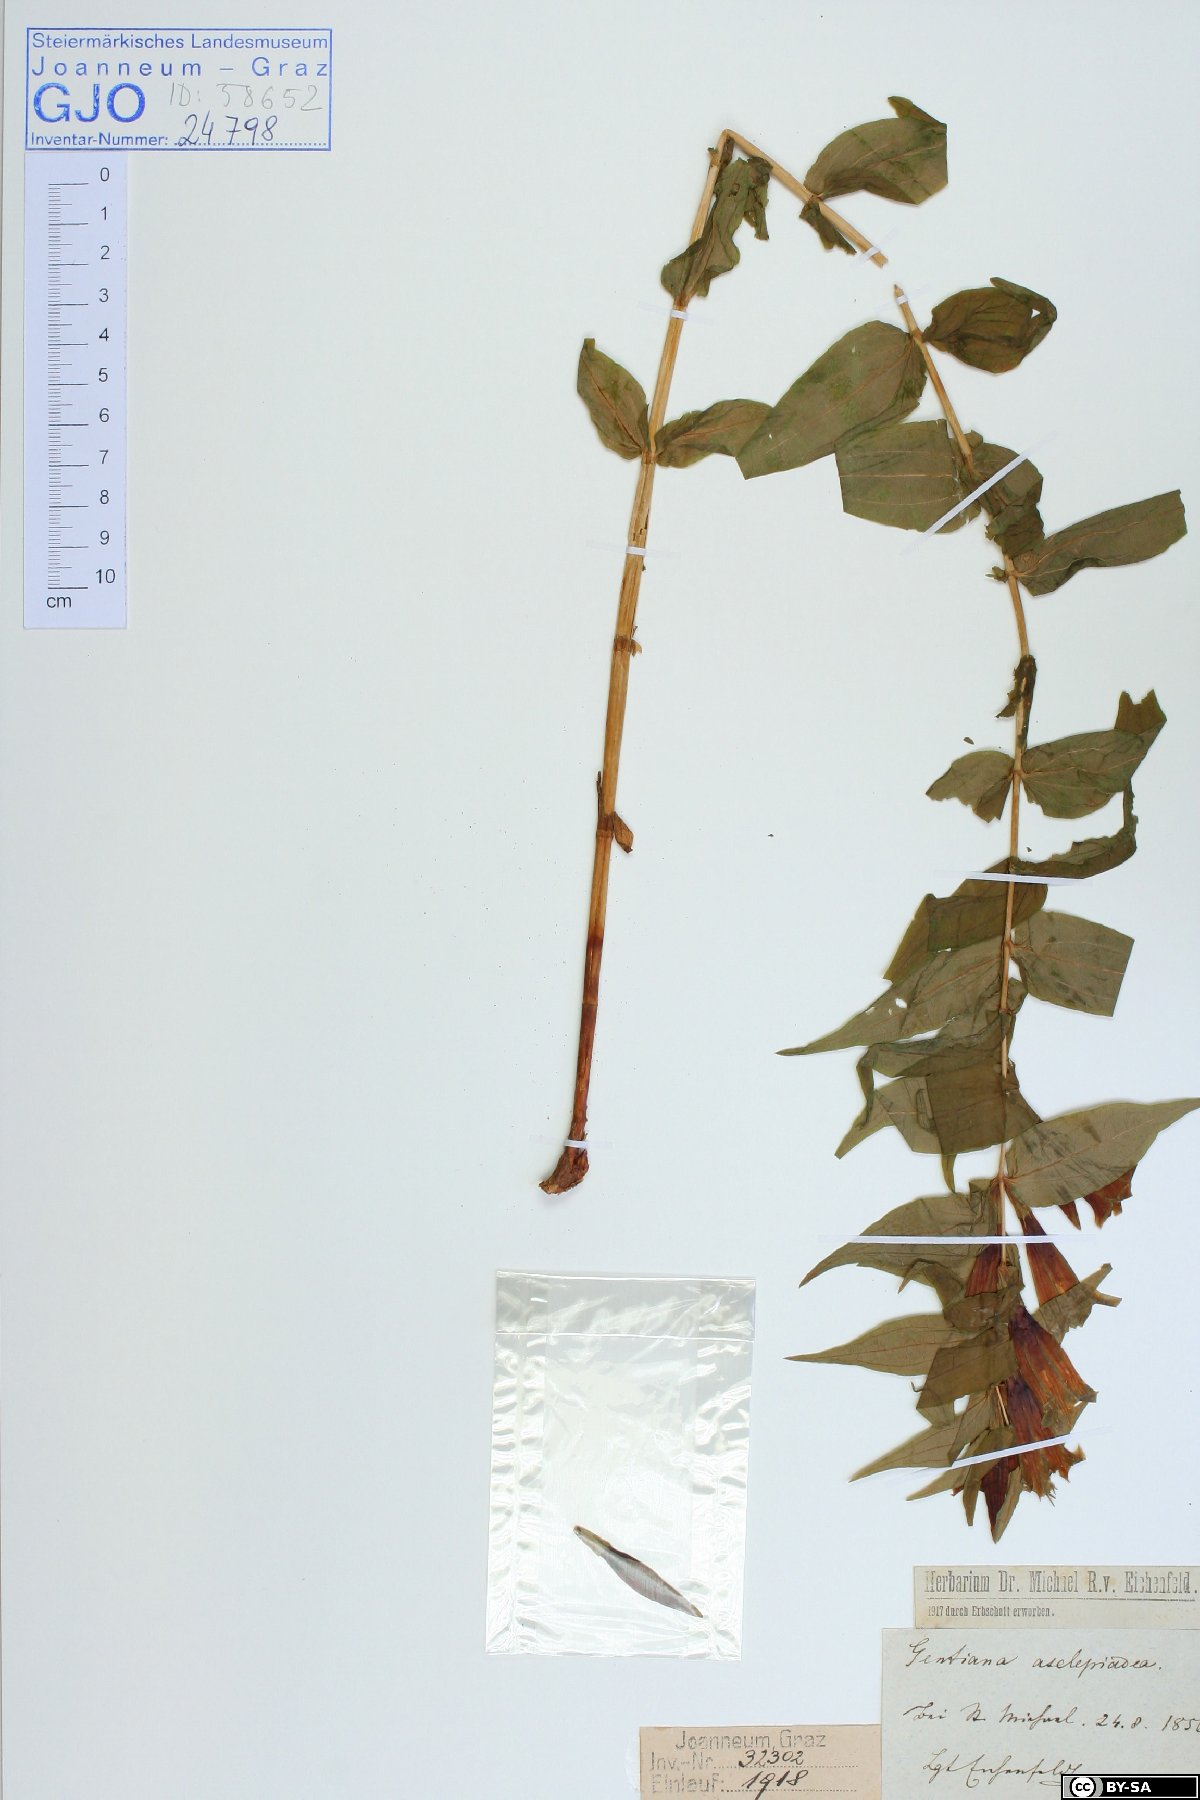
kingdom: Plantae
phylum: Tracheophyta
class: Magnoliopsida
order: Gentianales
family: Gentianaceae
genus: Gentiana
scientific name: Gentiana asclepiadea
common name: Willow gentian
